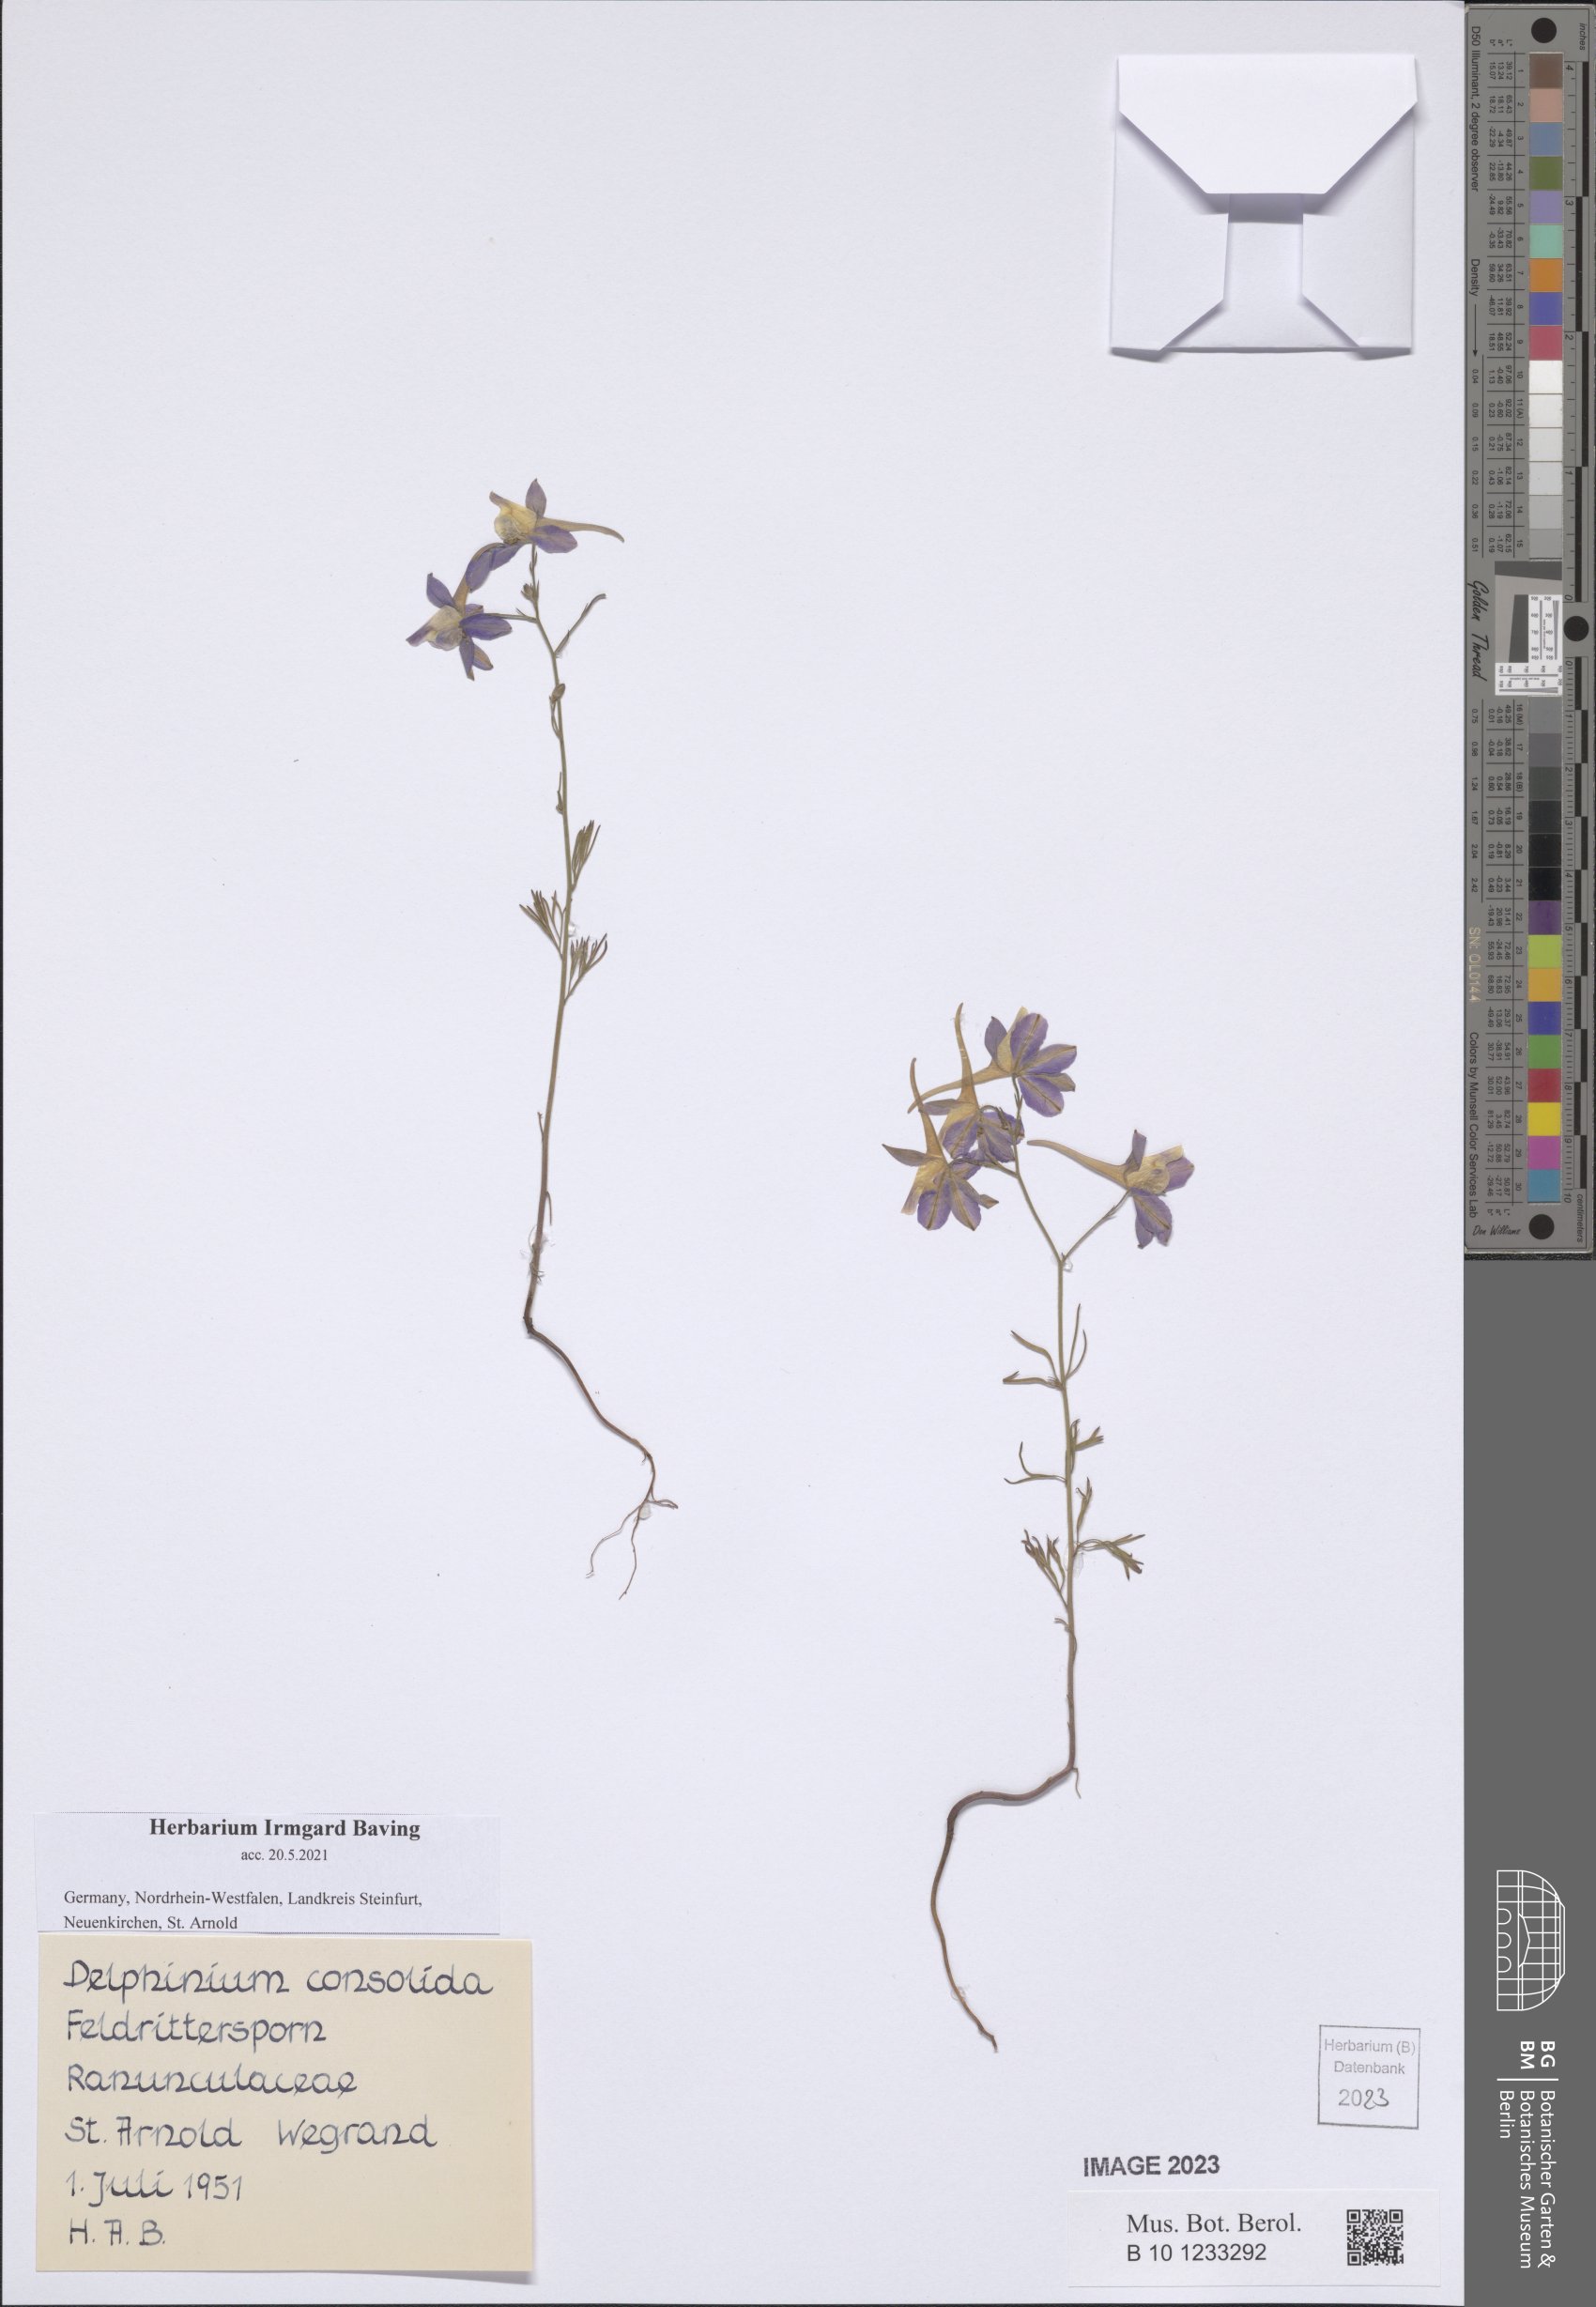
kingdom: Plantae
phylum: Tracheophyta
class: Magnoliopsida
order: Ranunculales
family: Ranunculaceae
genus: Delphinium
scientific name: Delphinium consolida
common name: Branching larkspur
